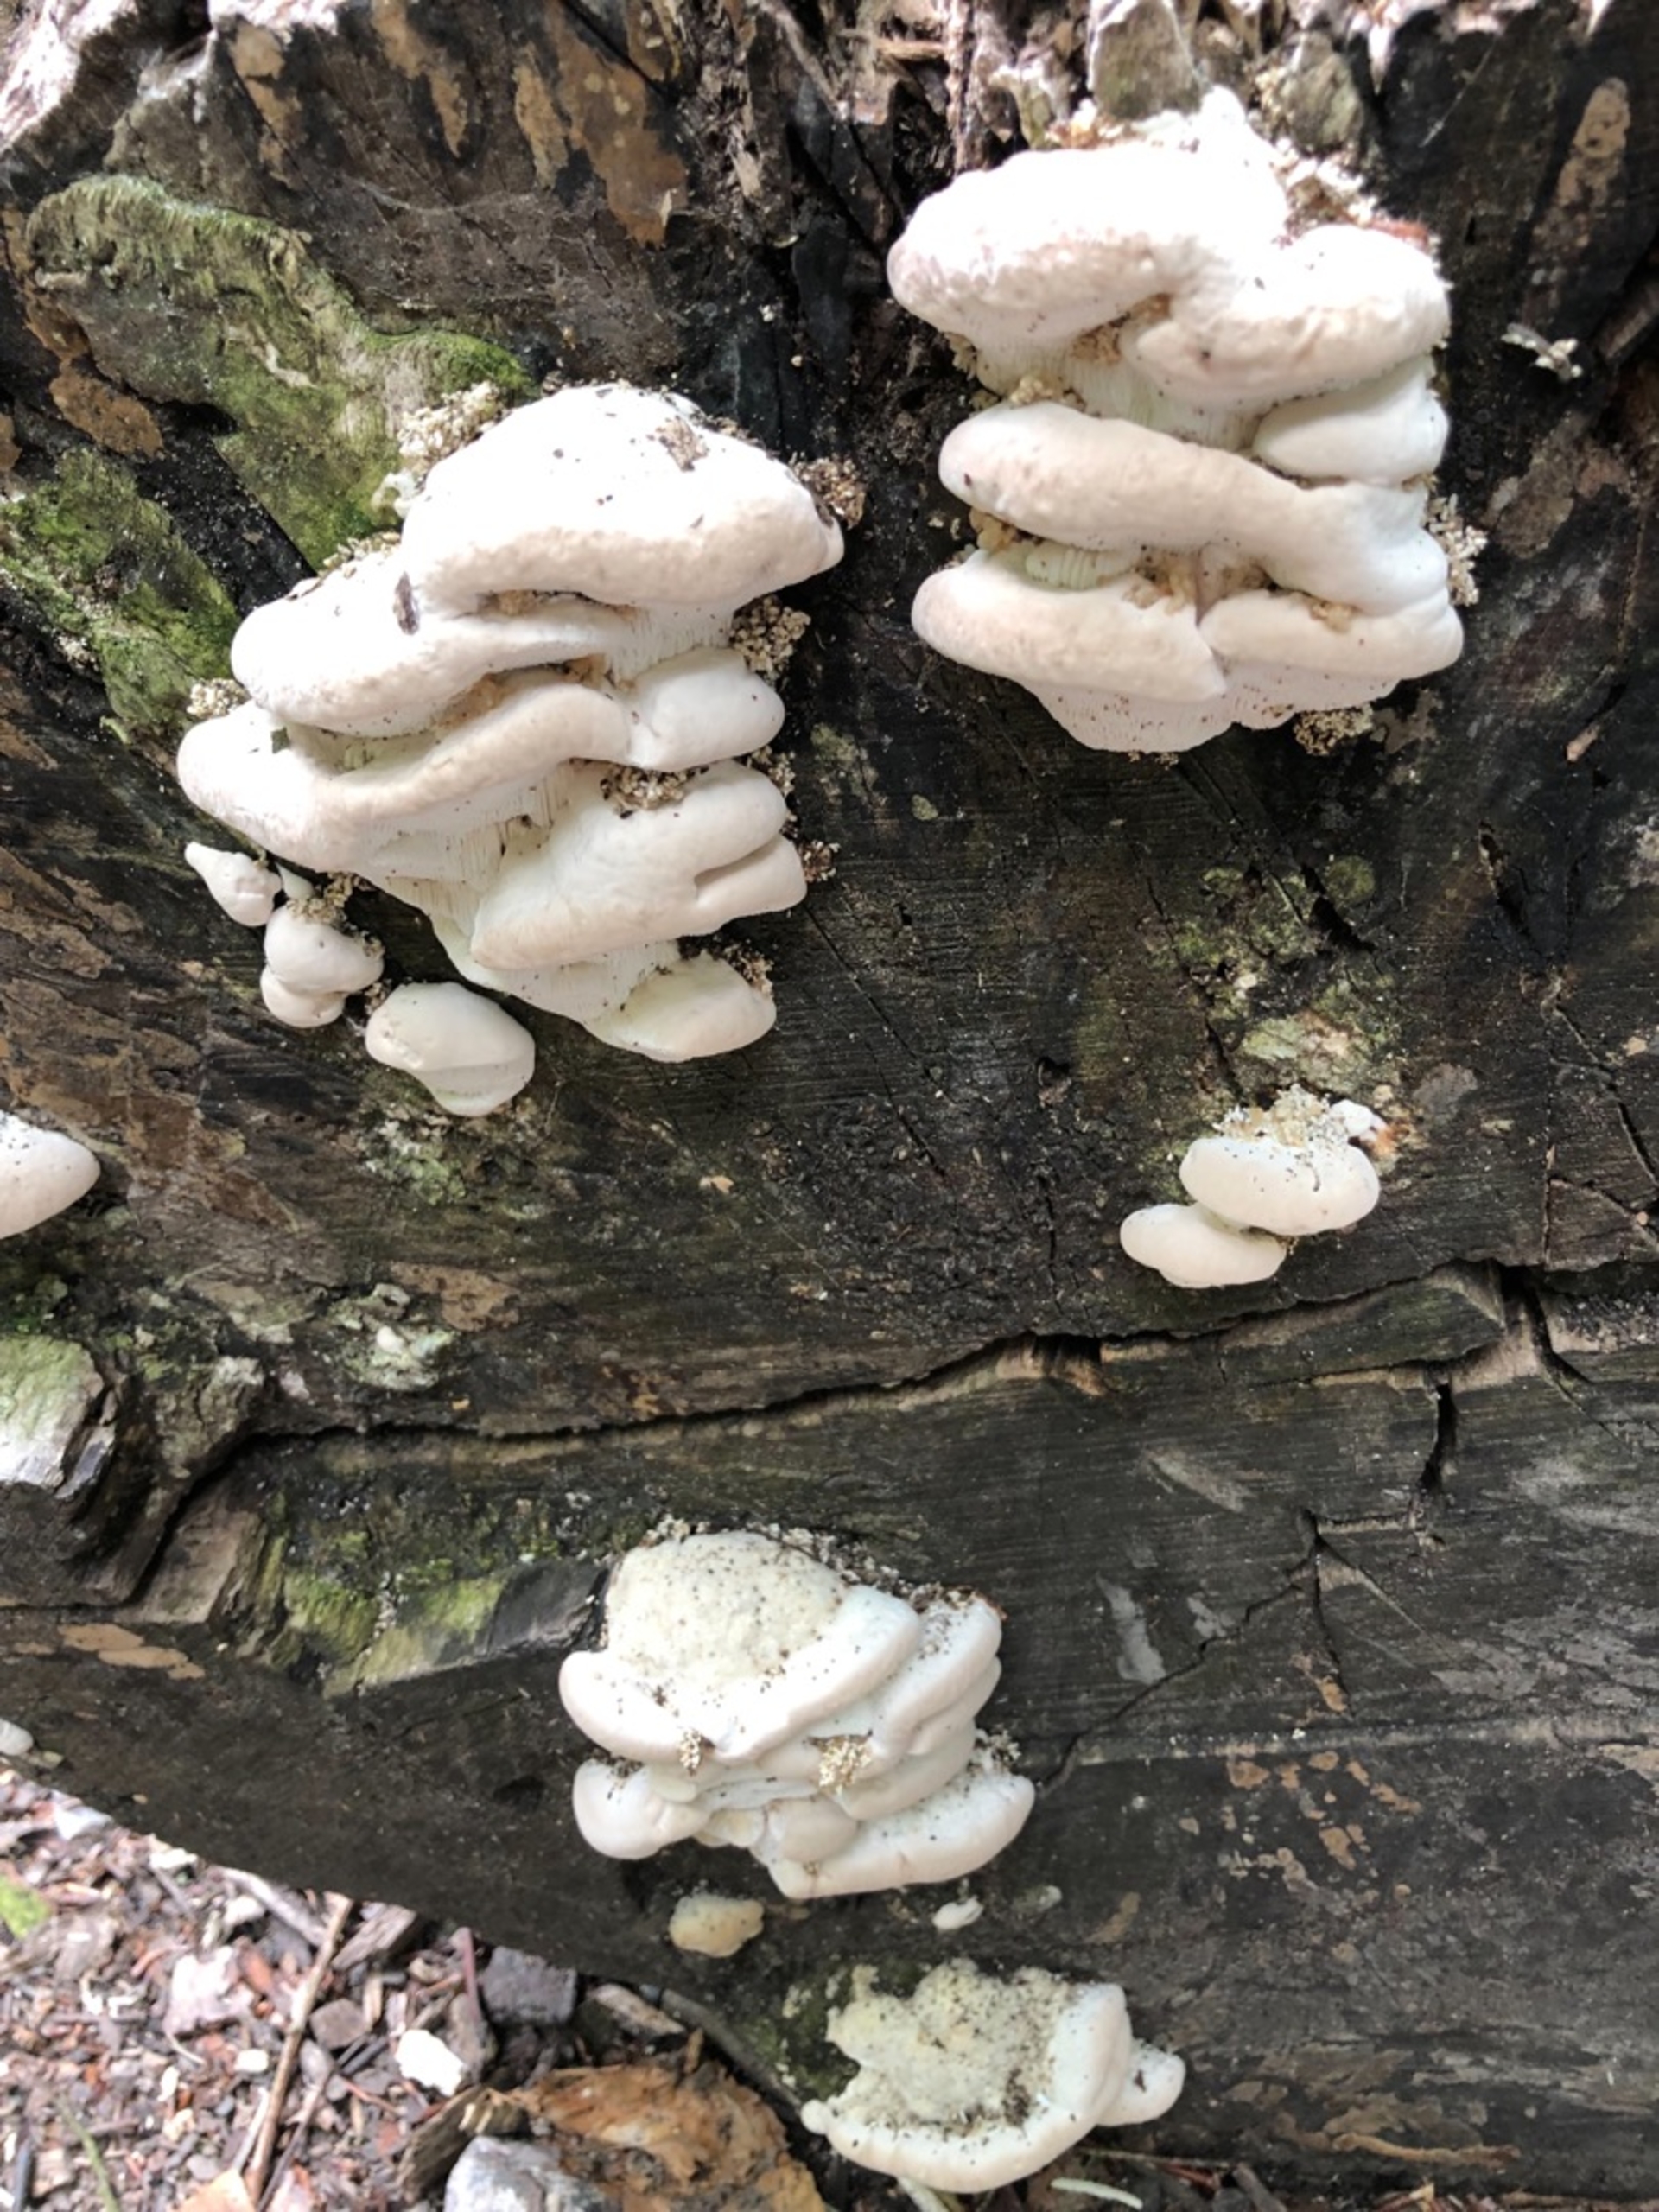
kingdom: Fungi
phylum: Basidiomycota
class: Agaricomycetes
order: Polyporales
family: Polyporaceae
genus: Trametes
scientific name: Trametes gibbosa
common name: Puklet læderporesvamp
